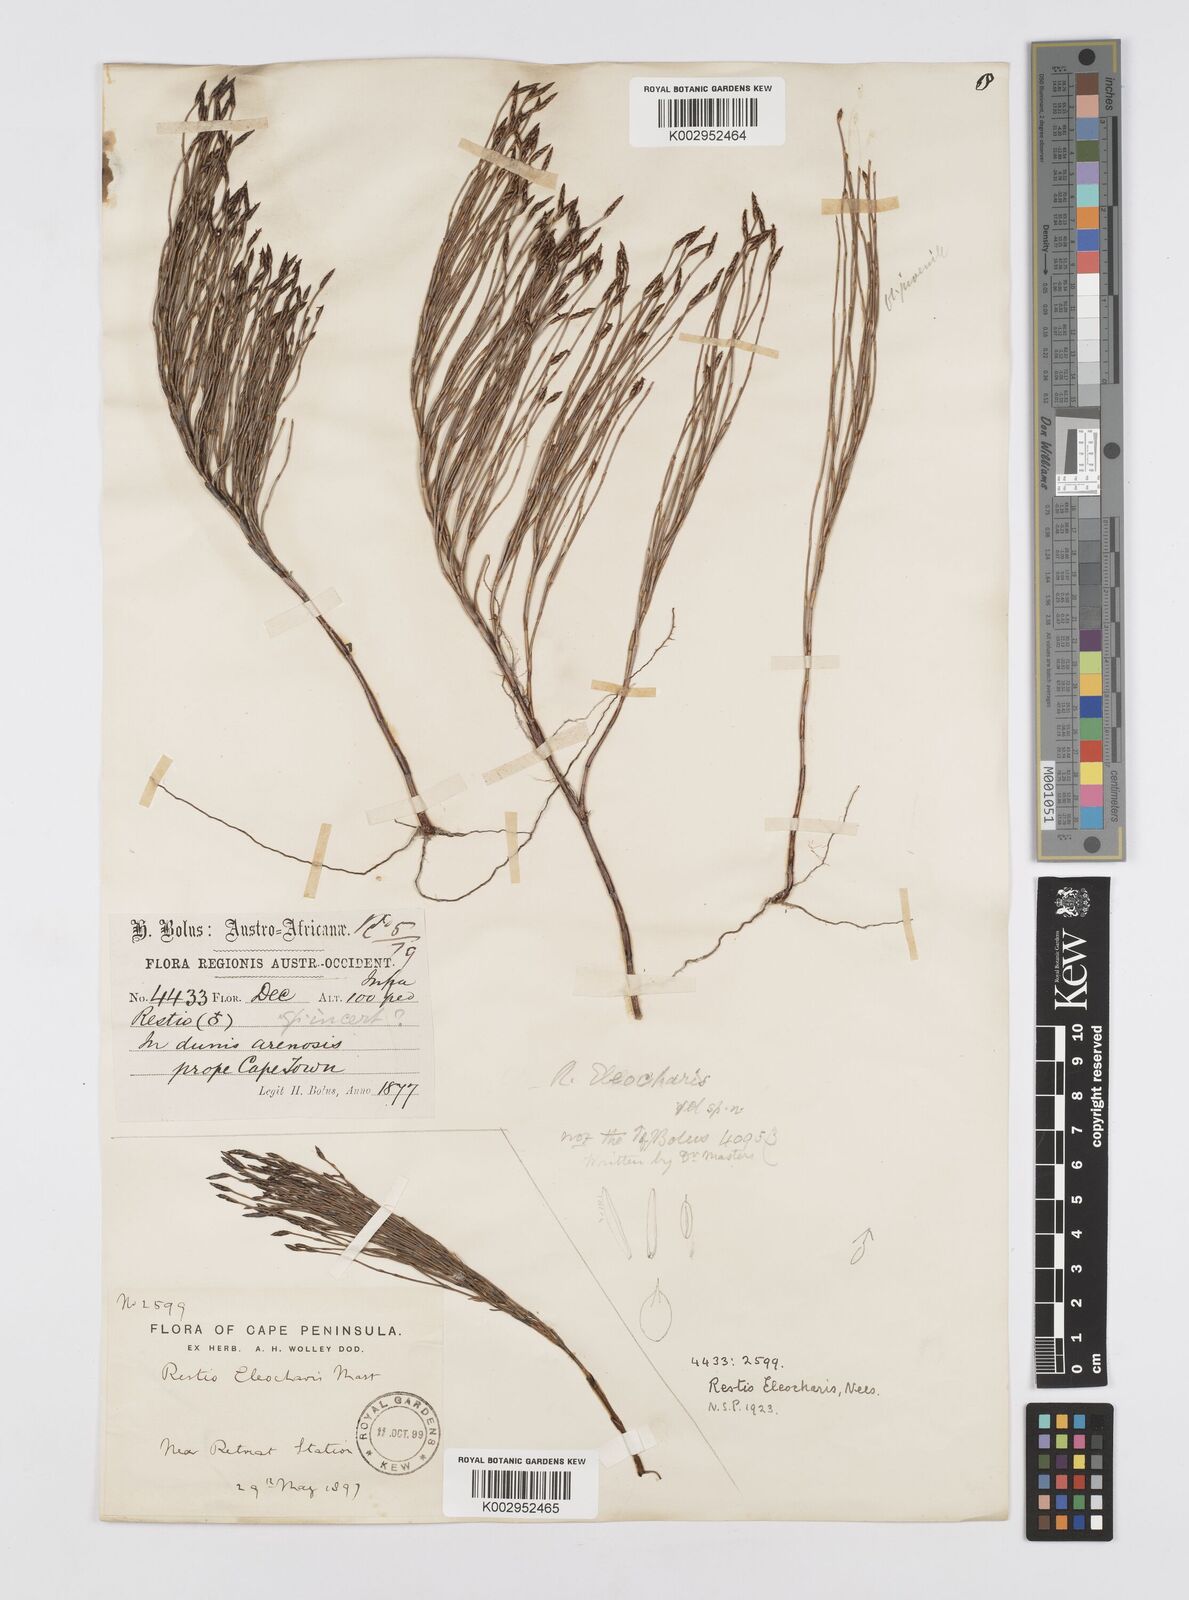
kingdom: Plantae
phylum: Tracheophyta
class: Liliopsida
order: Poales
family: Restionaceae
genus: Restio
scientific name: Restio eleocharis
